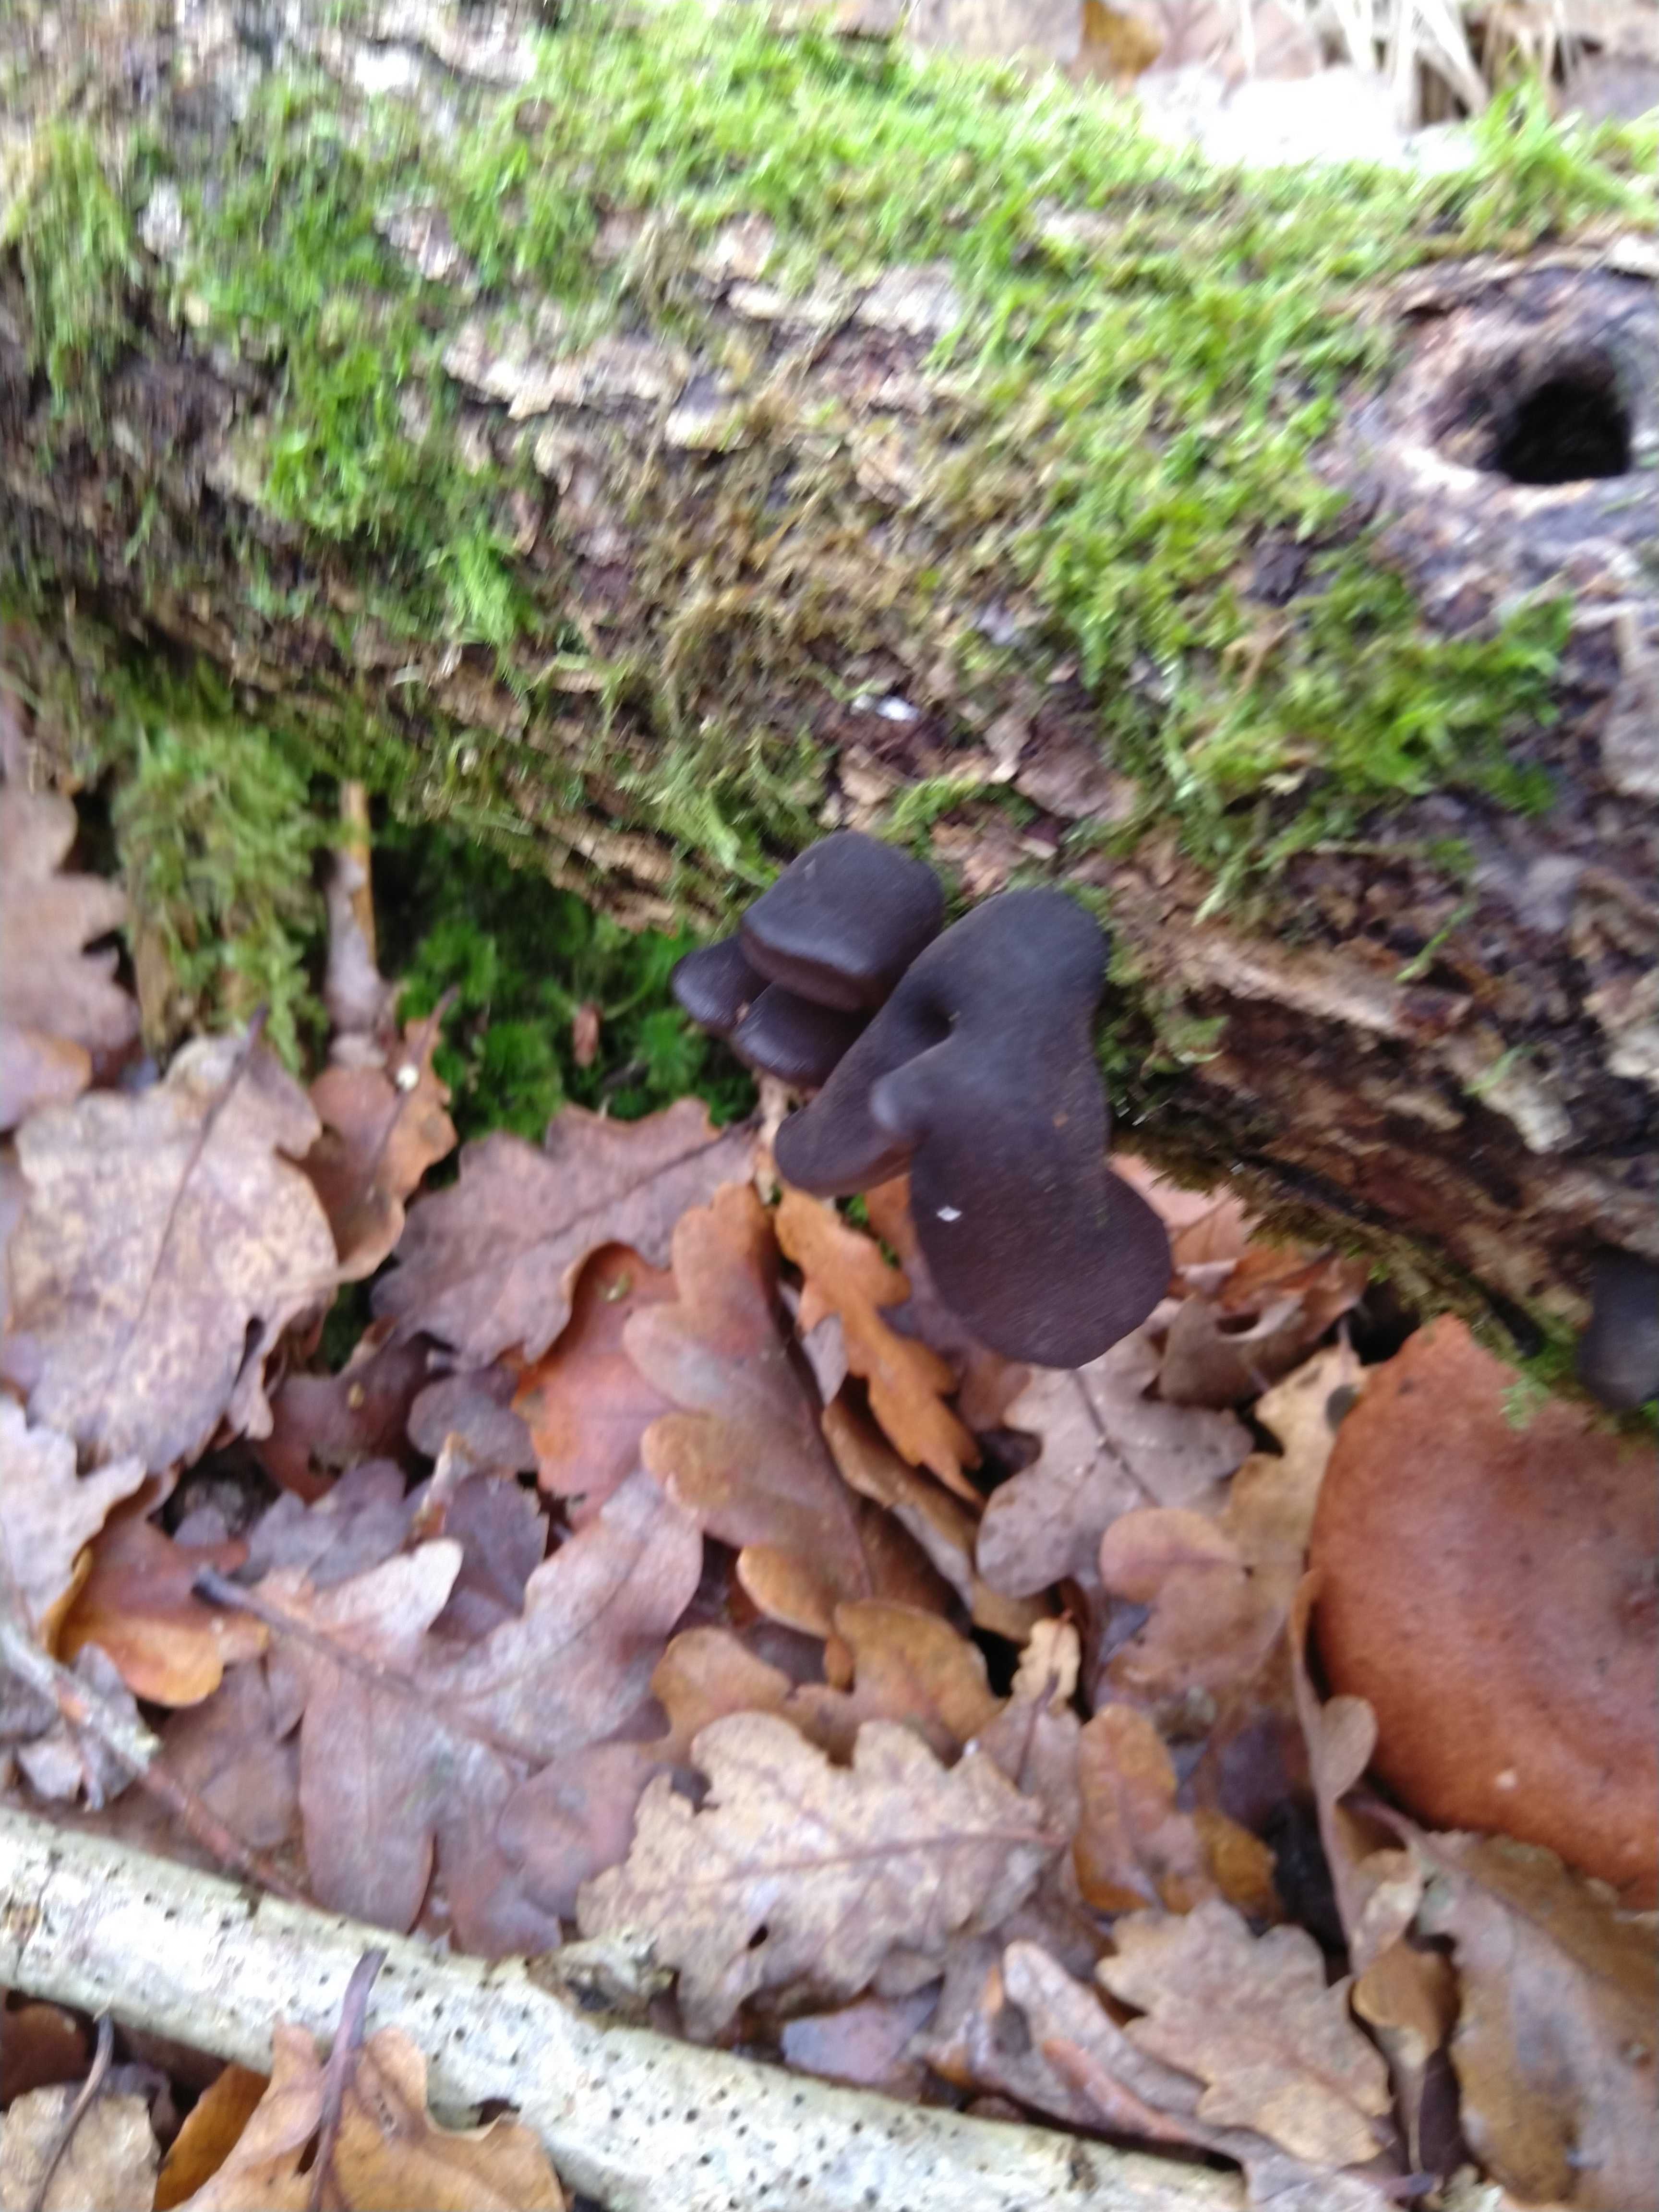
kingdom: Fungi
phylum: Basidiomycota
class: Agaricomycetes
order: Auriculariales
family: Auriculariaceae
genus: Exidia
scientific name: Exidia glandulosa
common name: ege-bævretop
